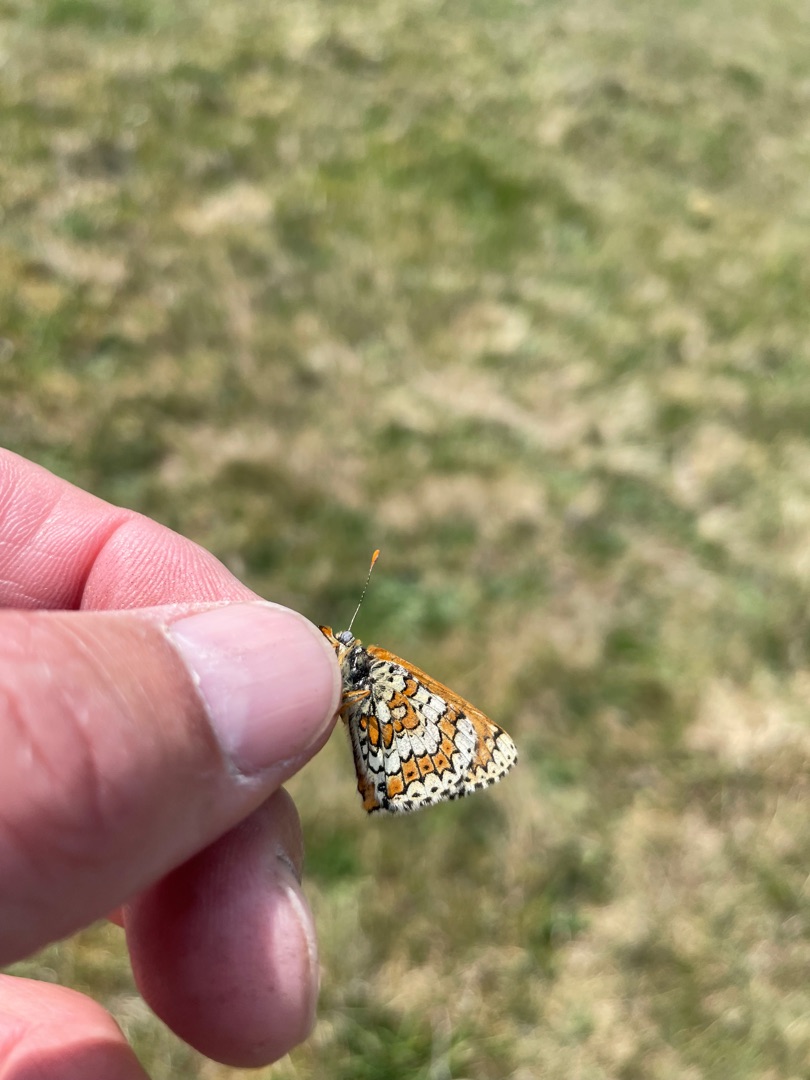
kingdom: Animalia
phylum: Arthropoda
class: Insecta
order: Lepidoptera
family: Nymphalidae
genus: Melitaea
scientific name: Melitaea cinxia
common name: Okkergul pletvinge
